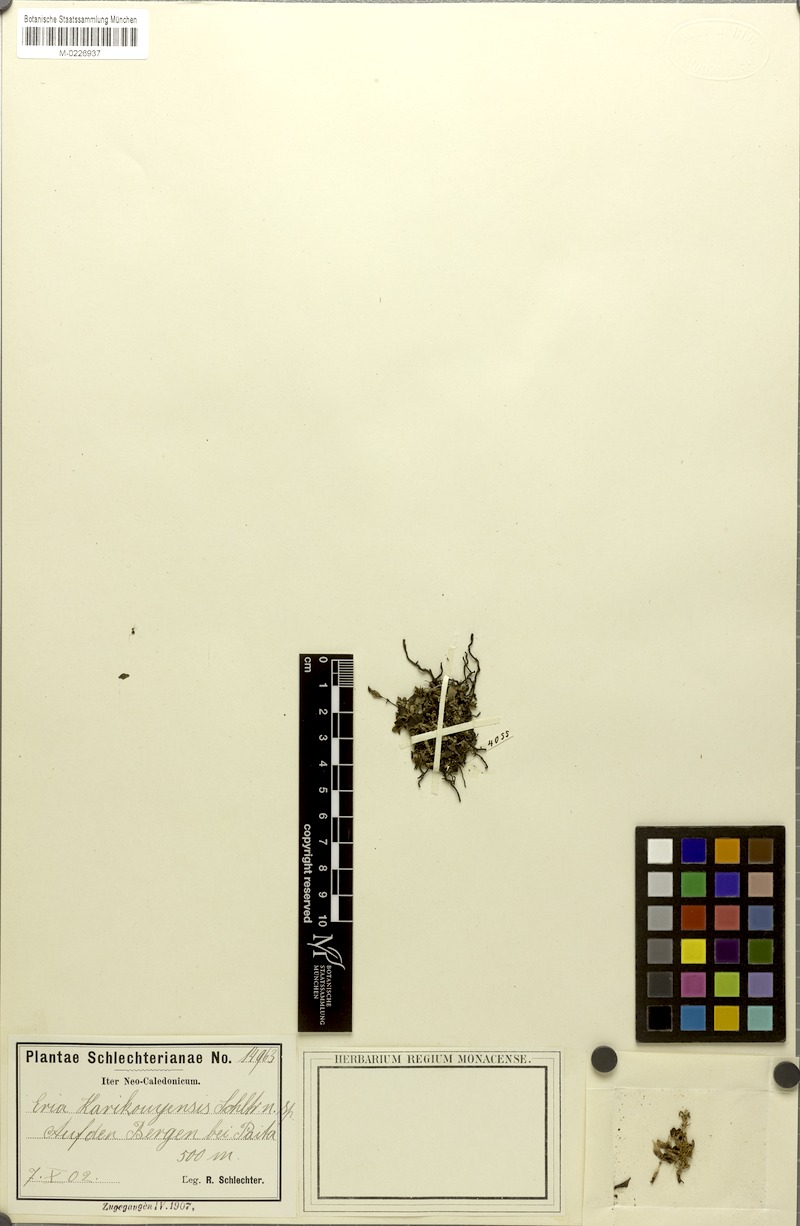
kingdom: Plantae
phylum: Tracheophyta
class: Liliopsida
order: Asparagales
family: Orchidaceae
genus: Porpax
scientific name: Porpax karikouyensis
